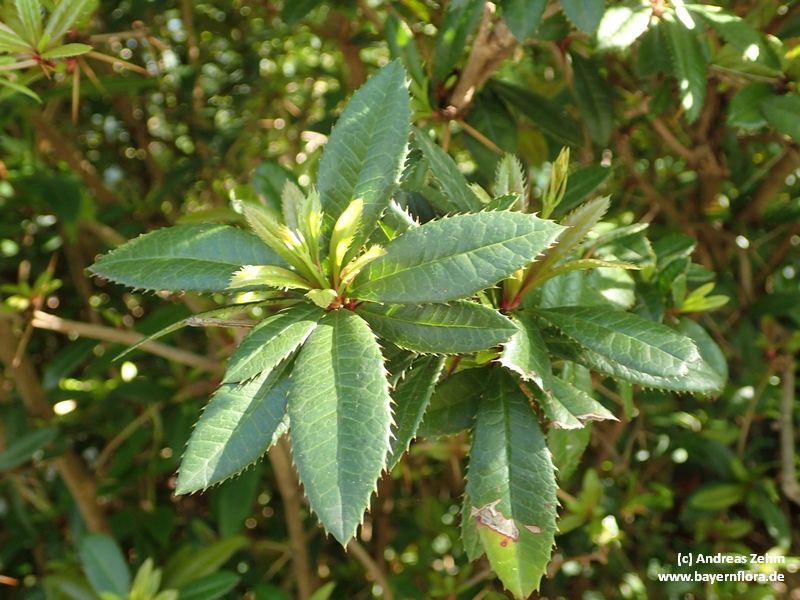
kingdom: Plantae
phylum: Tracheophyta
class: Magnoliopsida
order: Ranunculales
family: Berberidaceae
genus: Berberis
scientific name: Berberis julianae
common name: Wintergreen barberry
